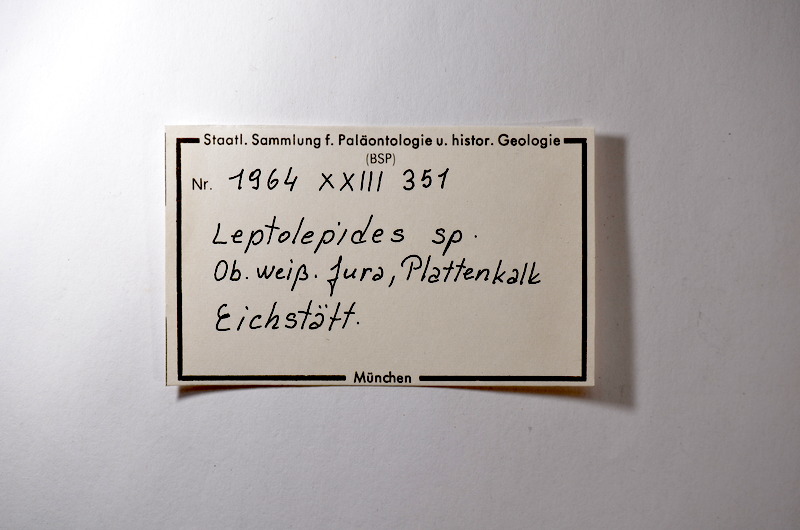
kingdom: Animalia
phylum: Chordata
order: Salmoniformes
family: Orthogonikleithridae
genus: Leptolepides
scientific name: Leptolepides
